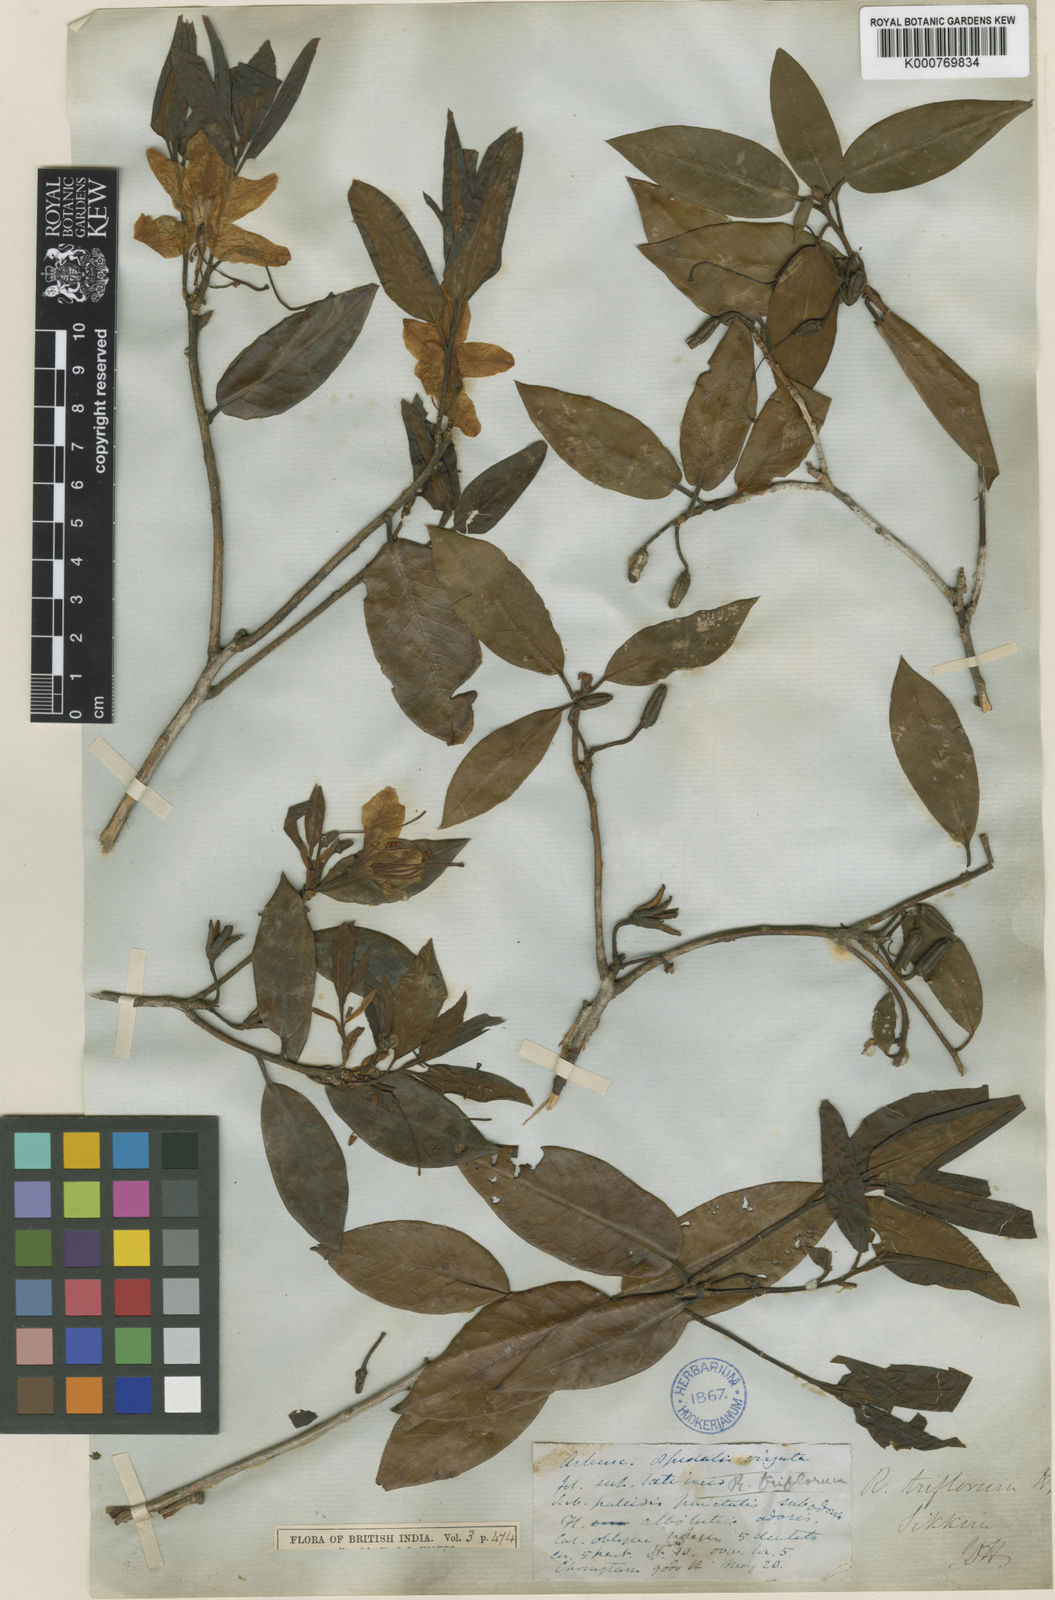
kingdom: Plantae
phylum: Tracheophyta
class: Magnoliopsida
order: Ericales
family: Ericaceae
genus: Rhododendron
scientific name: Rhododendron triflorum
